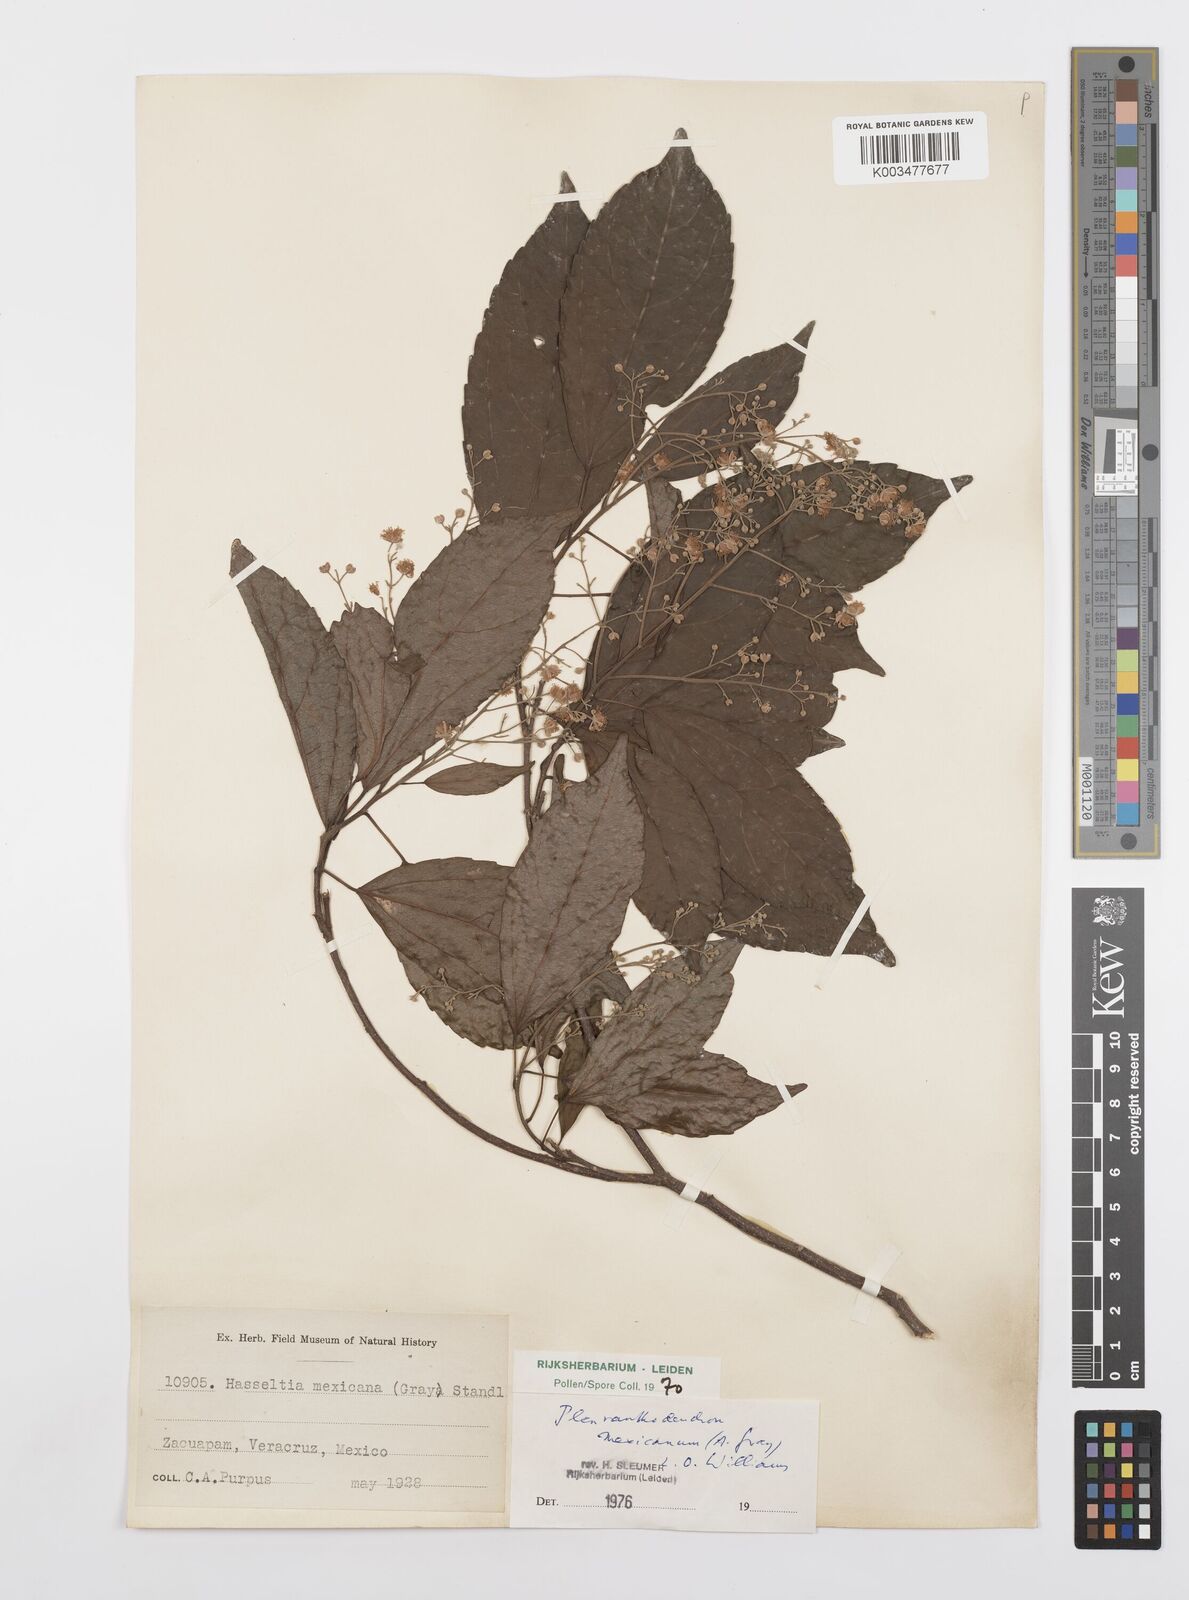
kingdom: Plantae
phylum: Tracheophyta
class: Magnoliopsida
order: Malpighiales
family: Salicaceae
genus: Pleuranthodendron
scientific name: Pleuranthodendron lindenii
